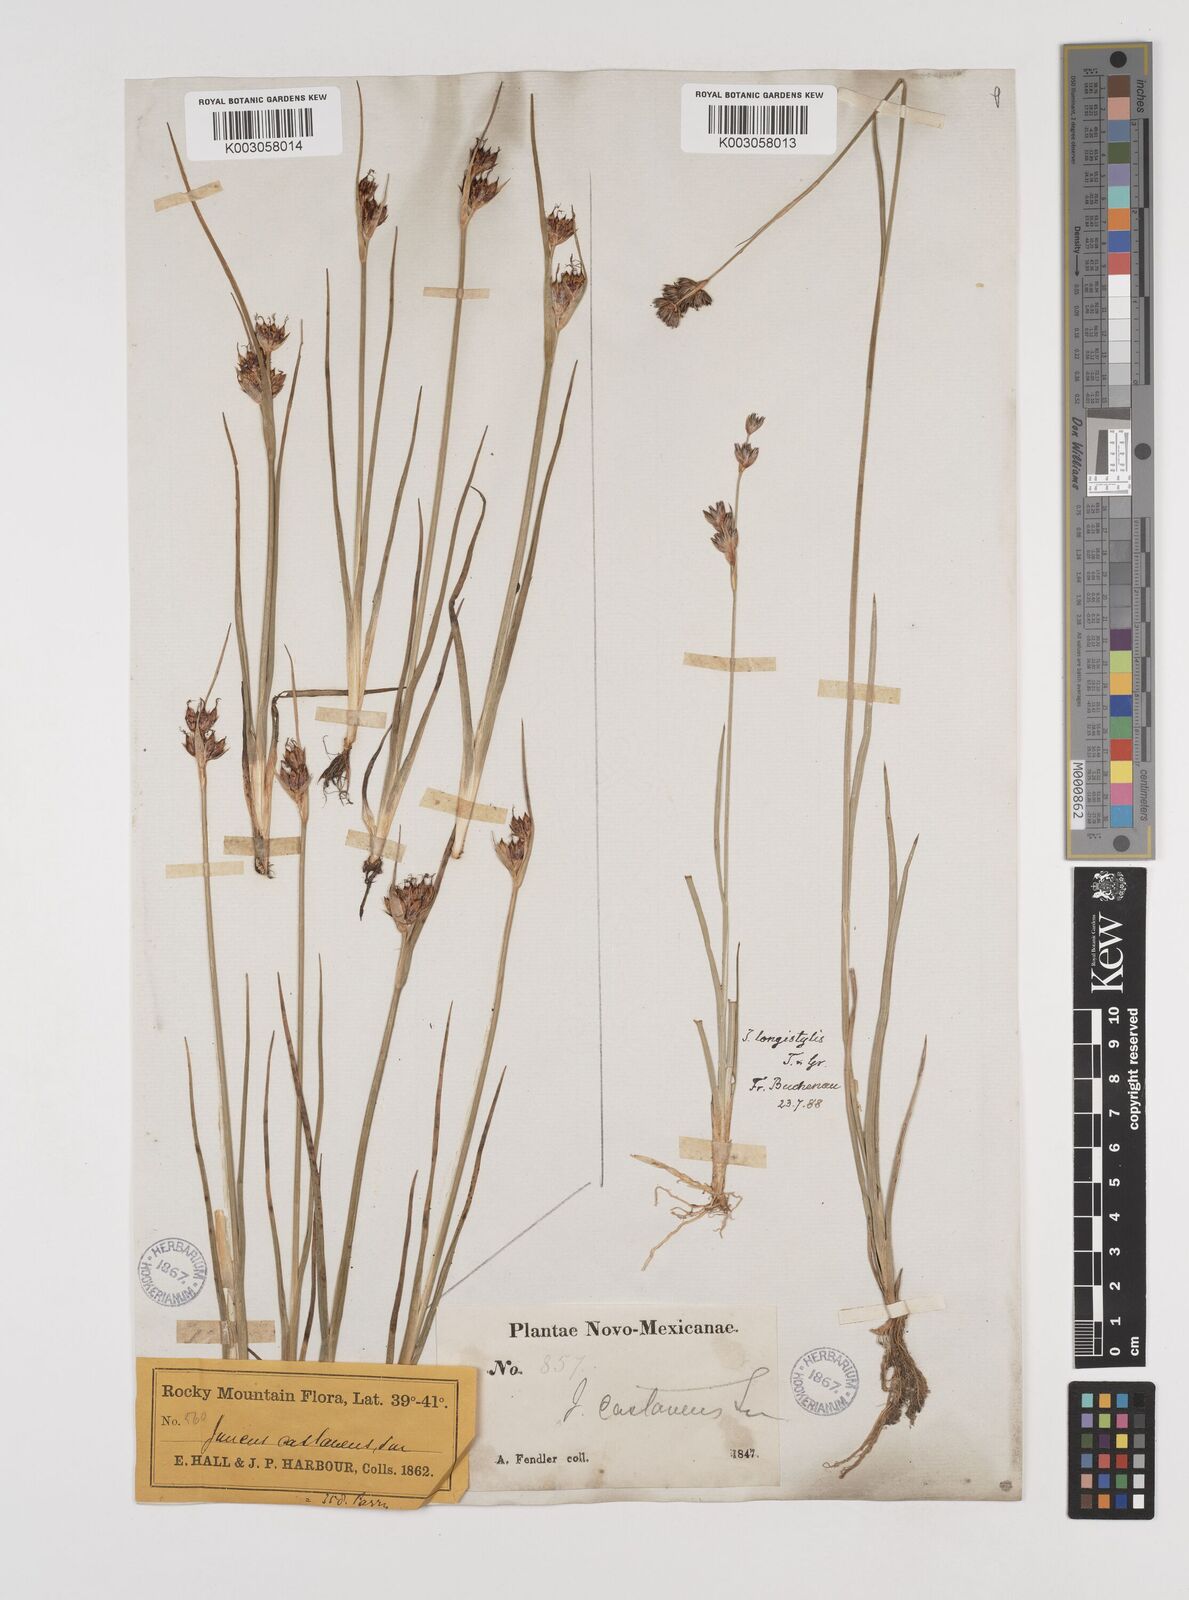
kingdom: Plantae
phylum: Tracheophyta
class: Liliopsida
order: Poales
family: Juncaceae
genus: Juncus
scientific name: Juncus longistylis
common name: Long-style rush
